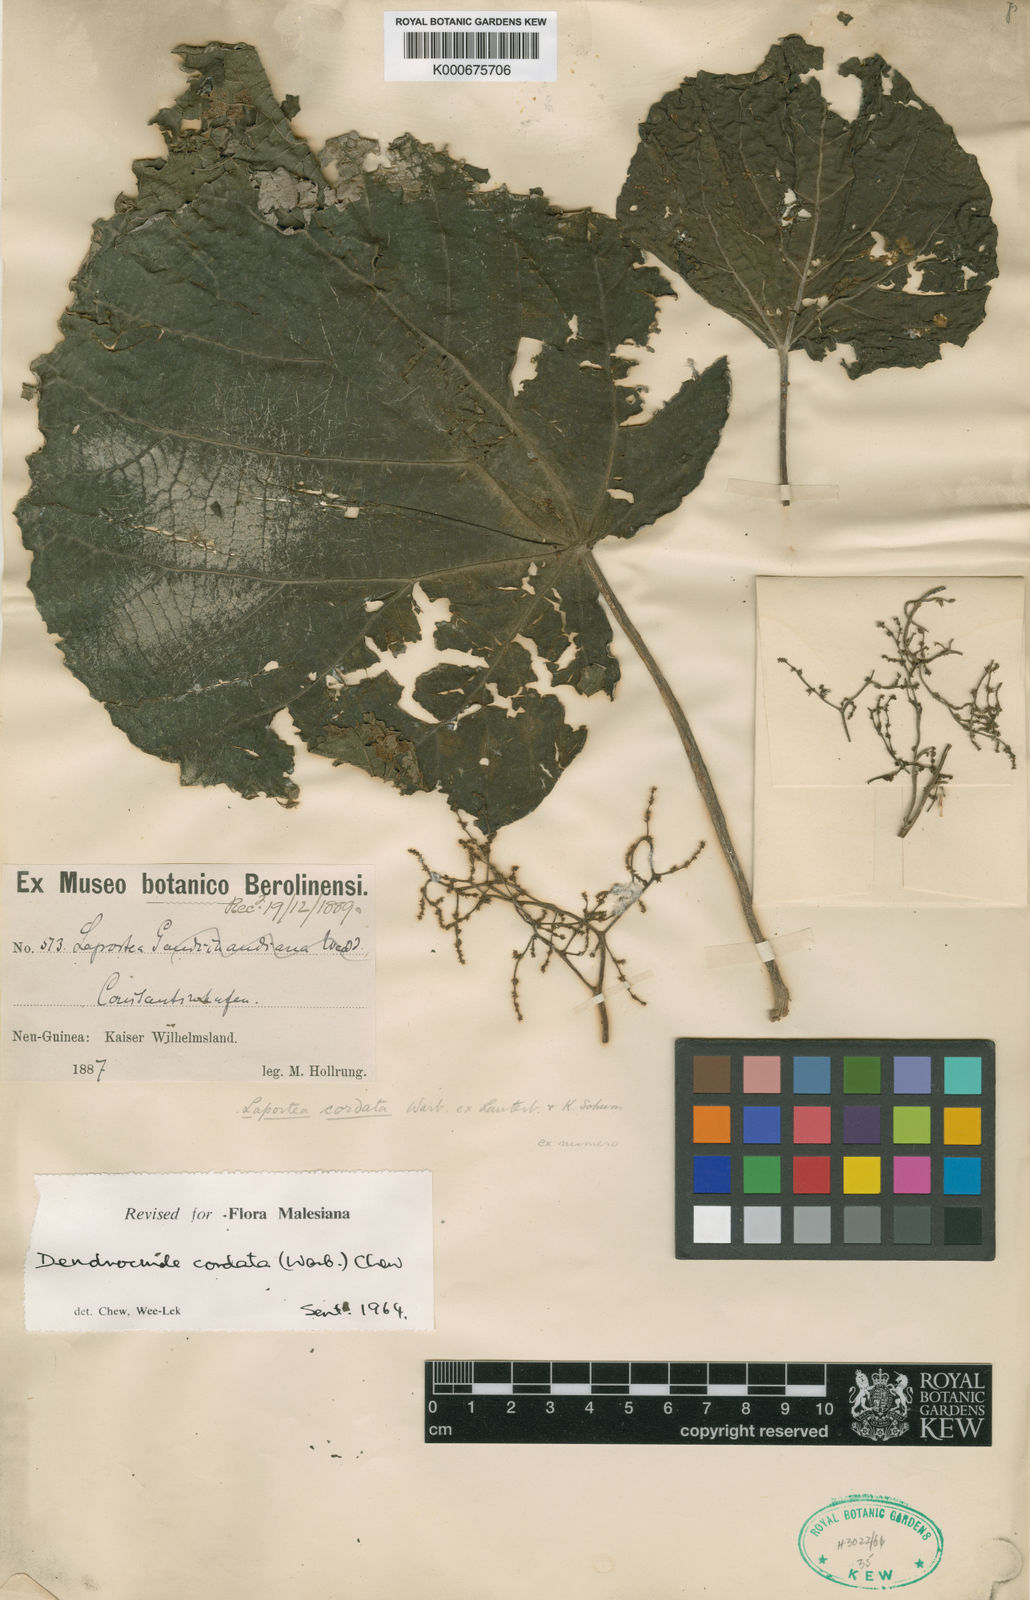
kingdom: Plantae
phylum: Tracheophyta
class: Magnoliopsida
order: Rosales
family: Urticaceae
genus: Dendrocnide
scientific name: Dendrocnide cordata
